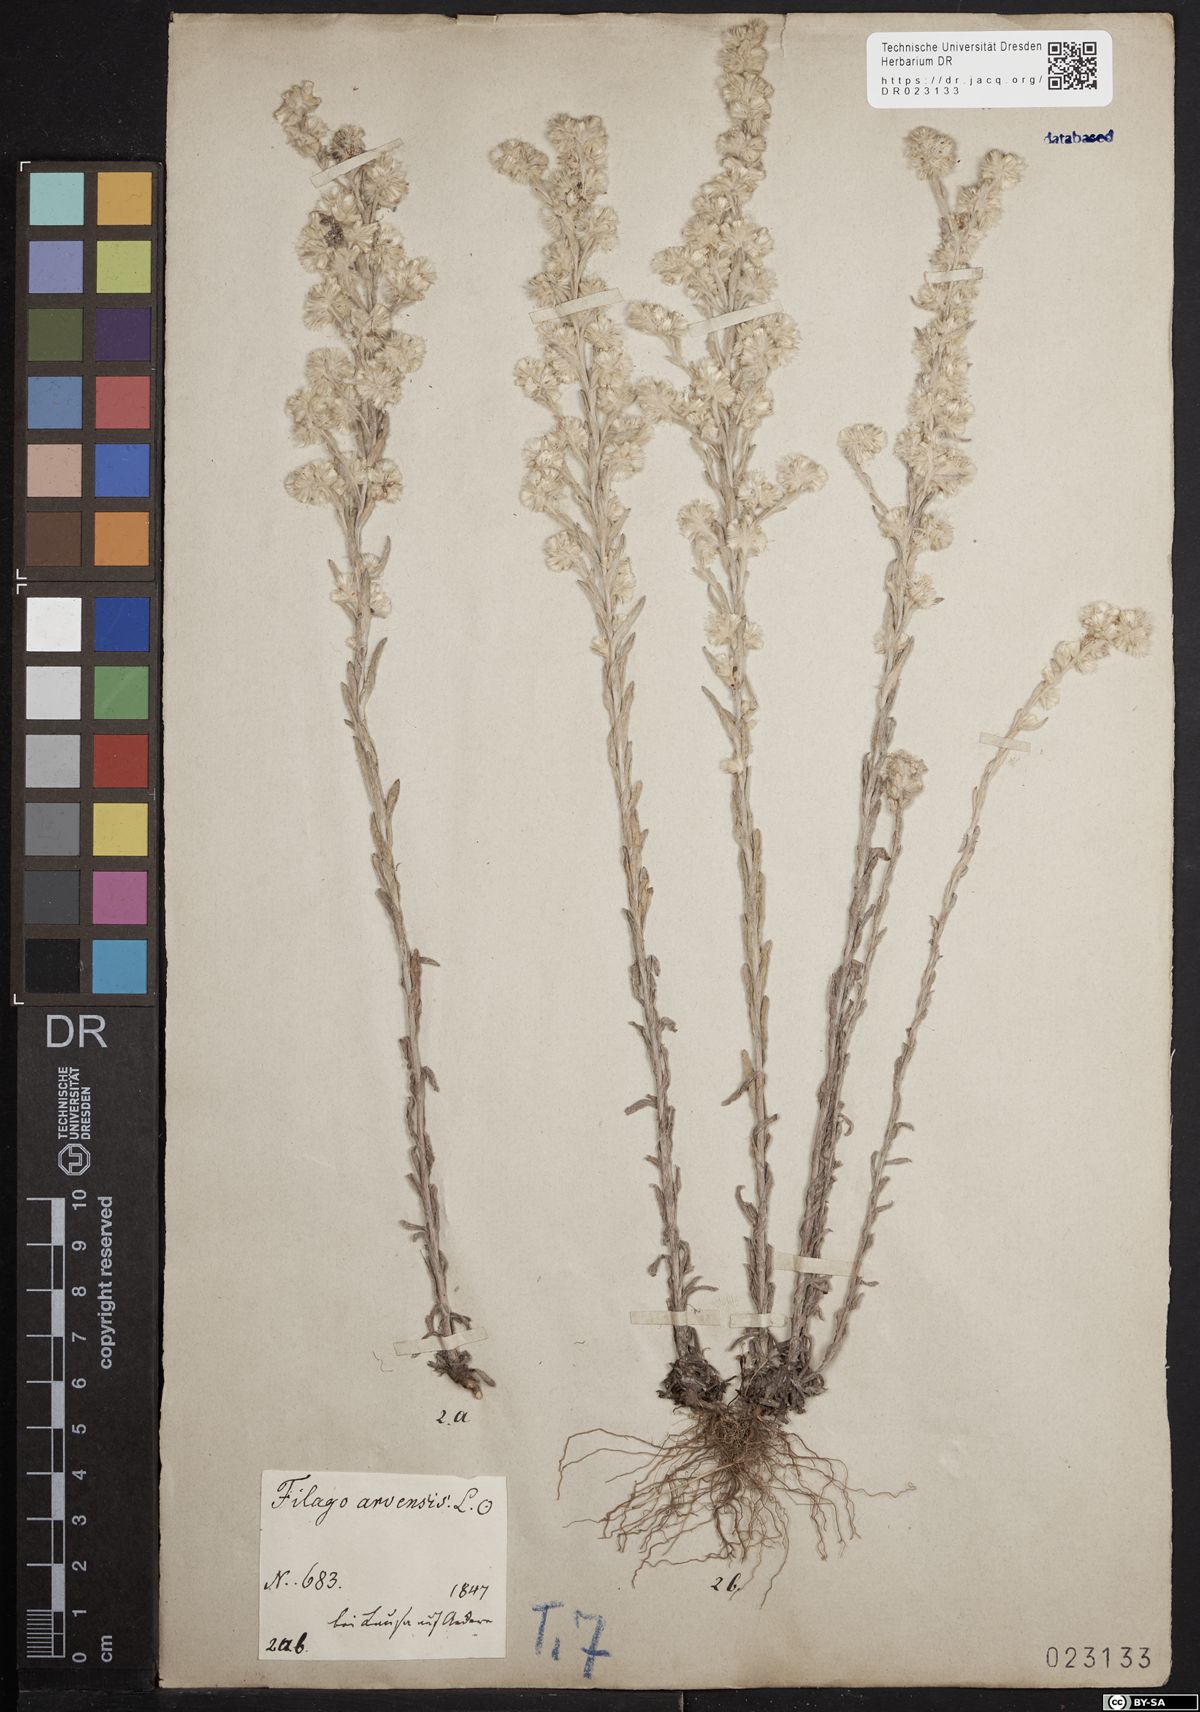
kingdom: Plantae
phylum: Tracheophyta
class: Magnoliopsida
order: Asterales
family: Asteraceae
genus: Filago
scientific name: Filago arvensis
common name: Field cudweed
